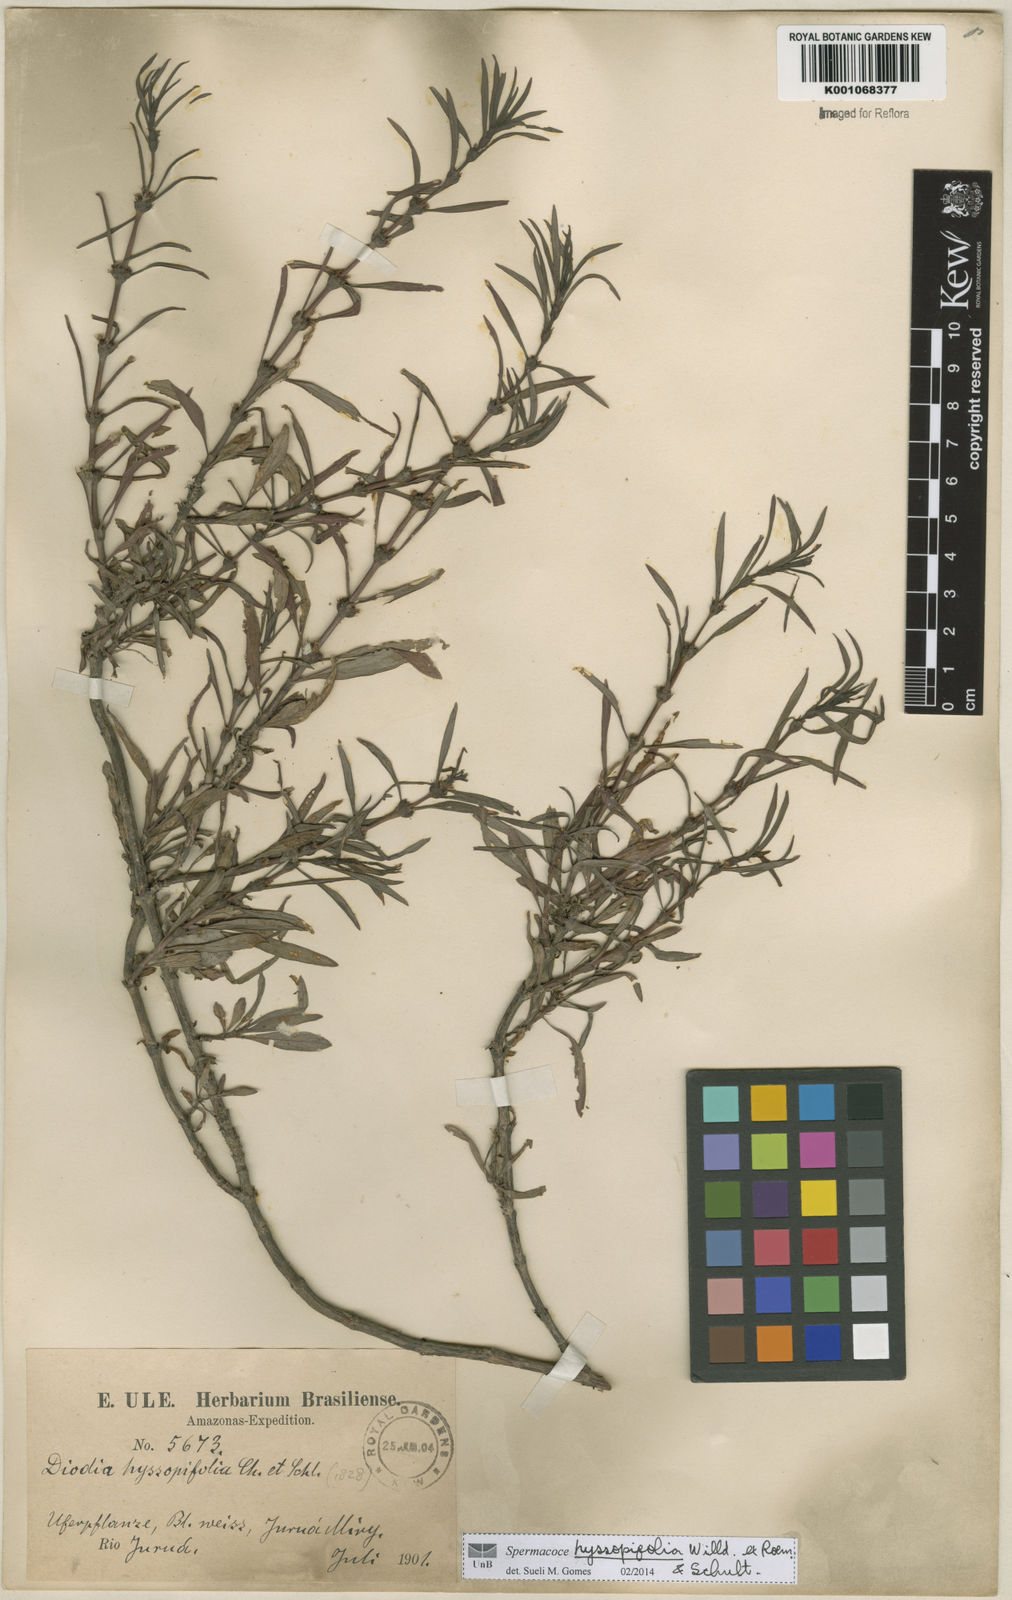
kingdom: Plantae
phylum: Tracheophyta
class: Magnoliopsida
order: Gentianales
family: Rubiaceae
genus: Spermacoce
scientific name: Spermacoce
